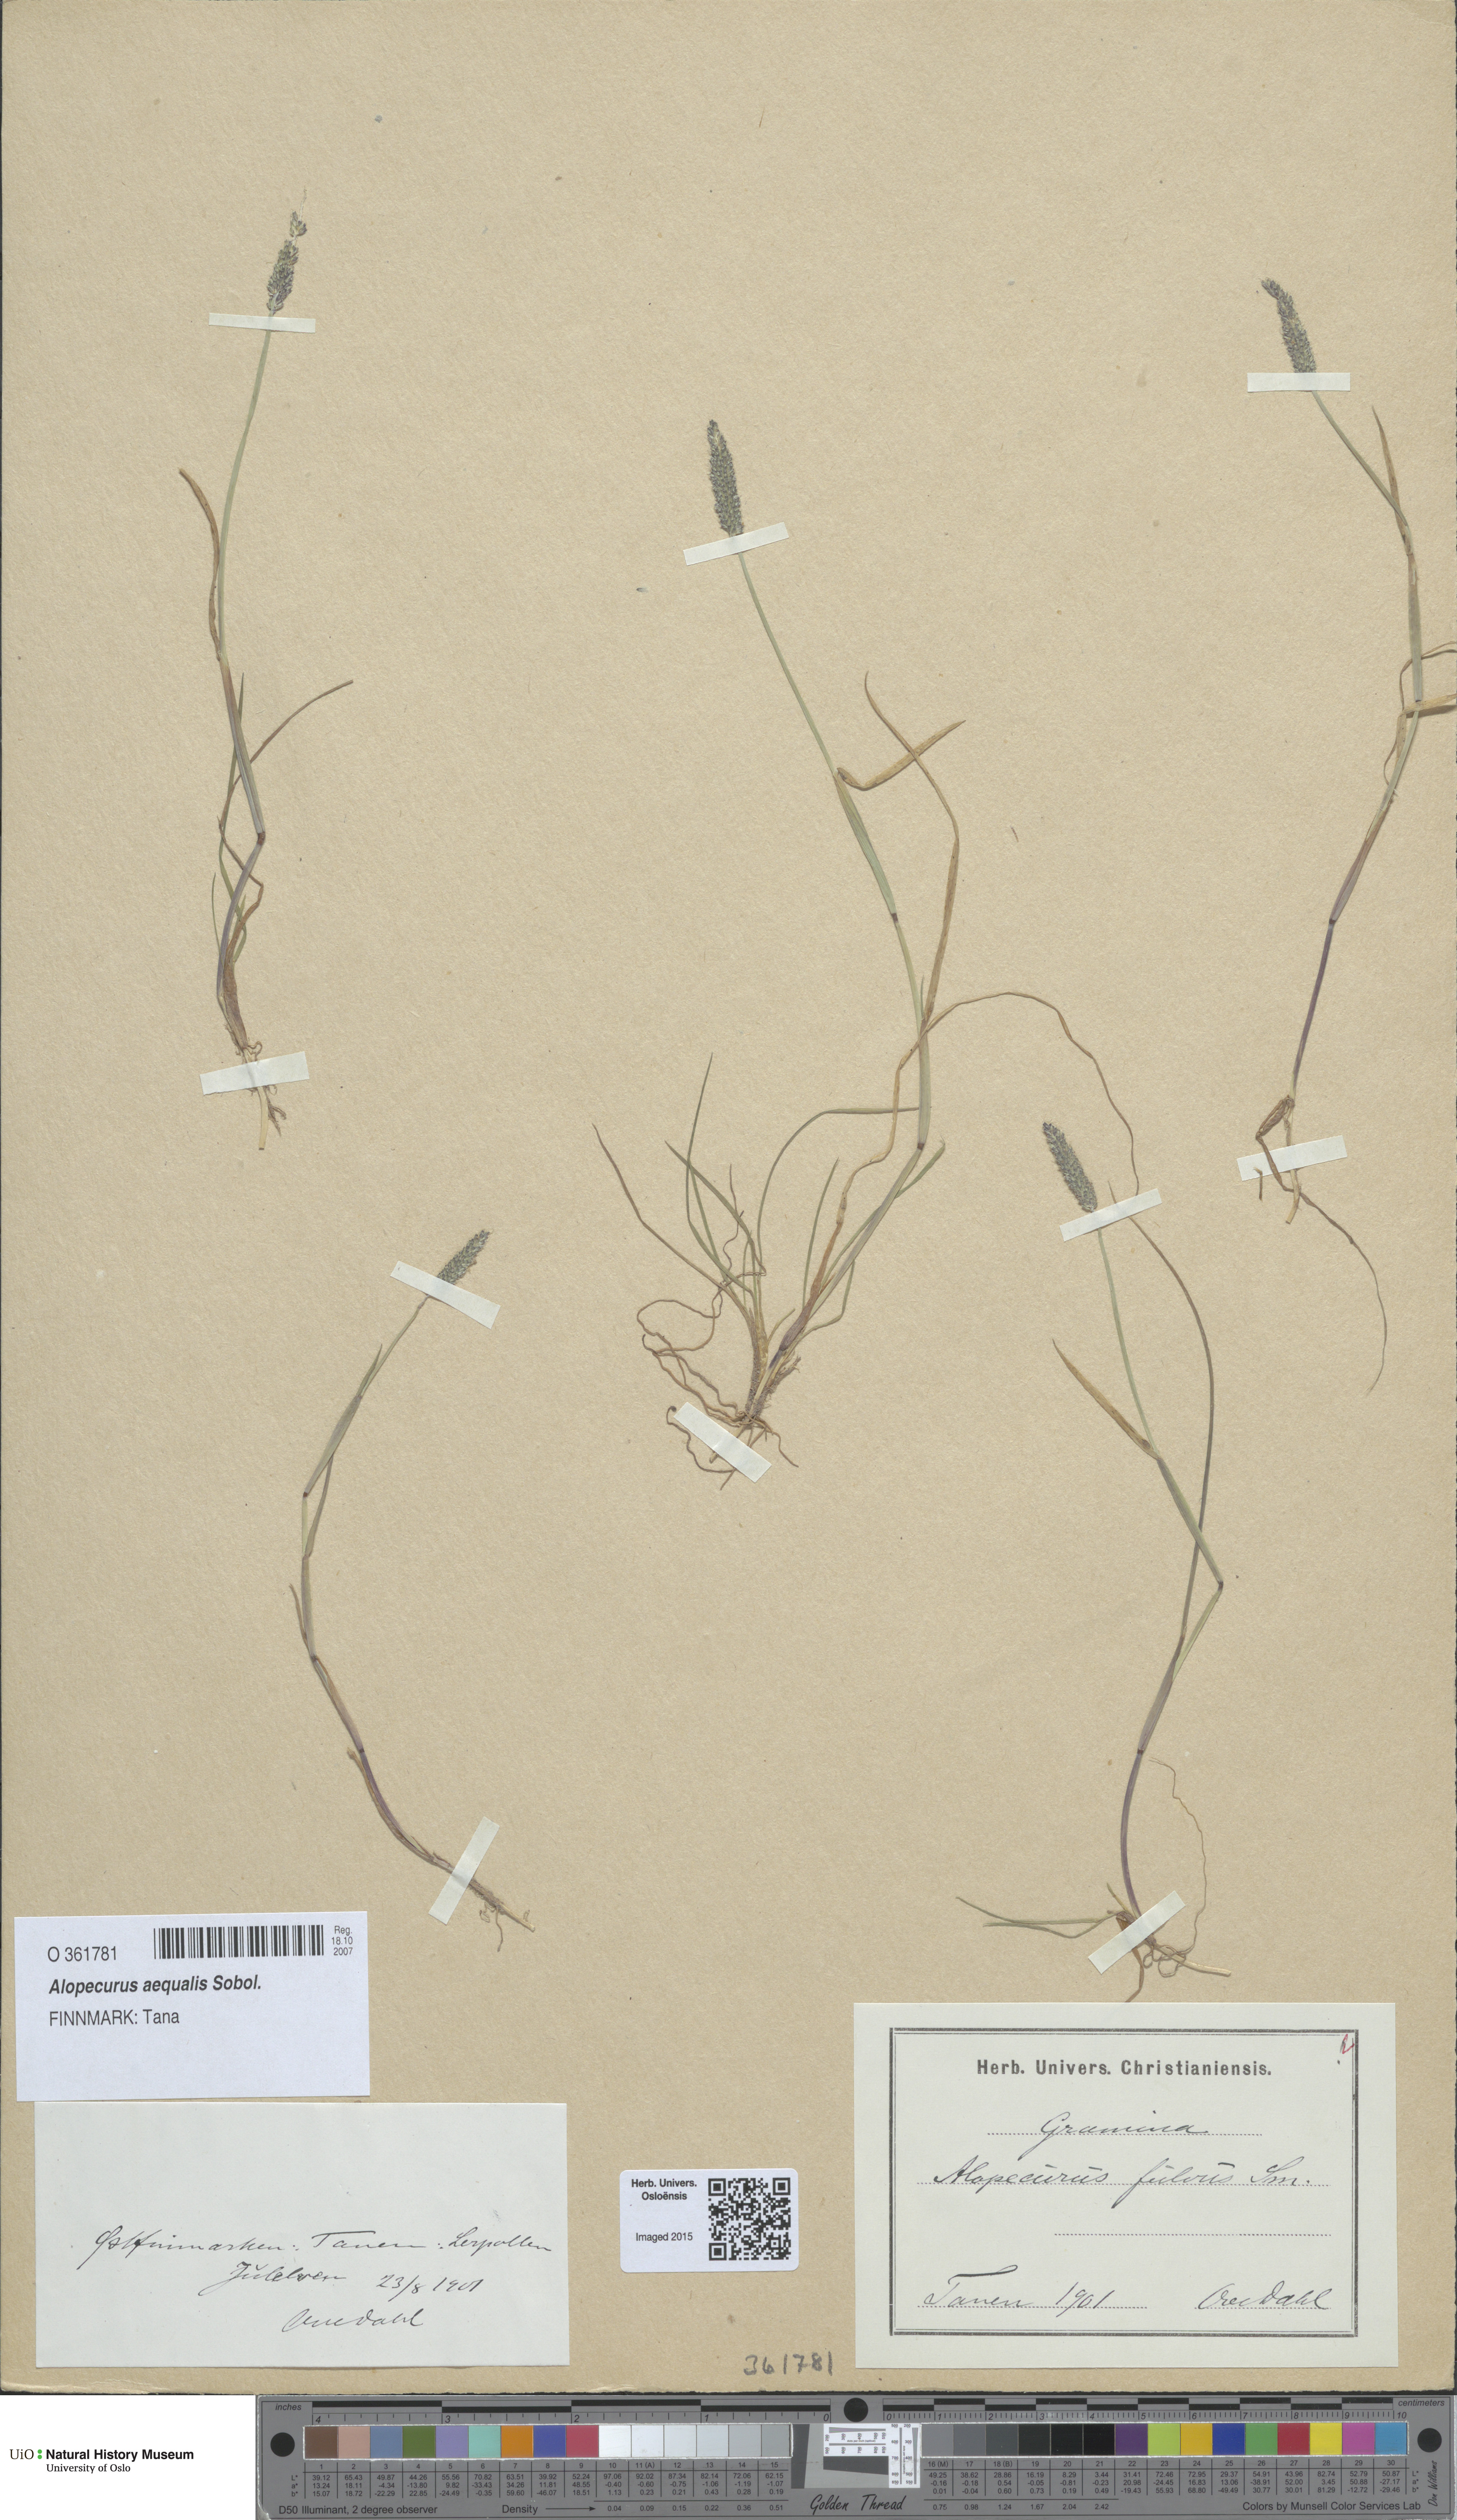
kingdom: Plantae
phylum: Tracheophyta
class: Liliopsida
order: Poales
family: Poaceae
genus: Alopecurus
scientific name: Alopecurus aequalis
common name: Orange foxtail
